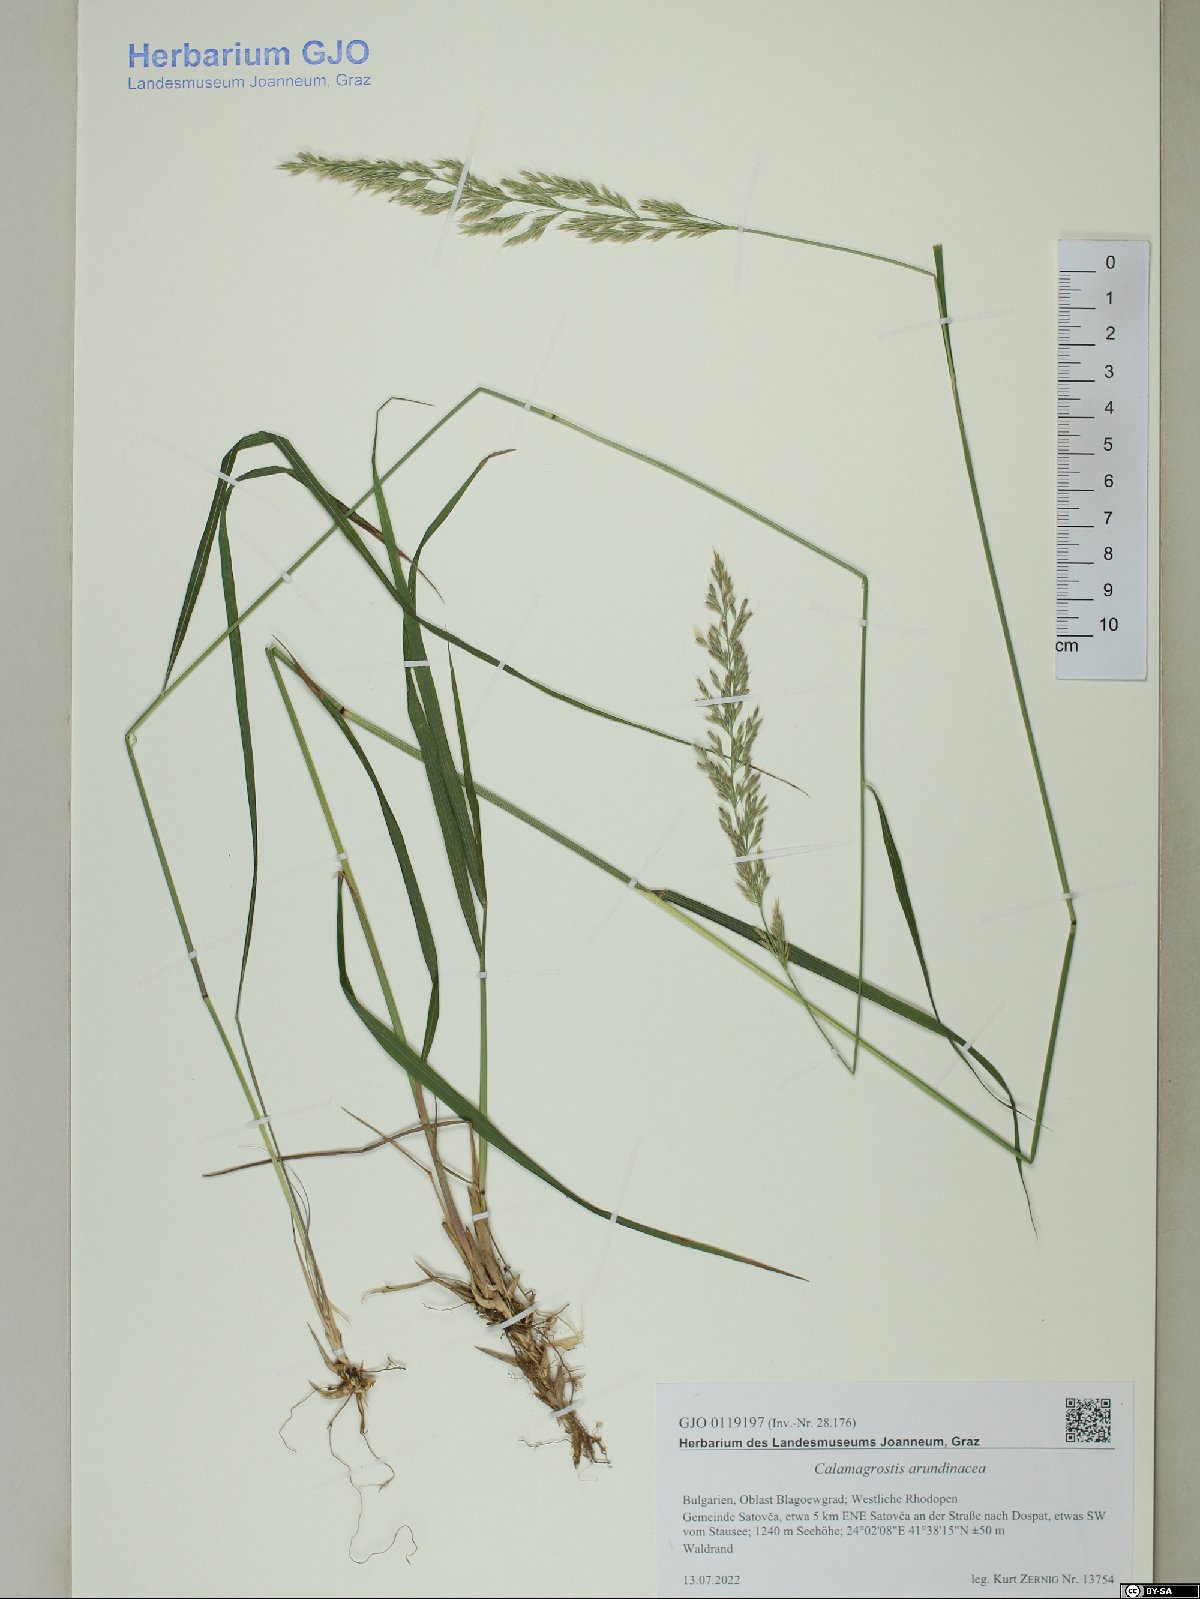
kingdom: Plantae
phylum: Tracheophyta
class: Liliopsida
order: Poales
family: Poaceae
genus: Calamagrostis
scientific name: Calamagrostis arundinacea
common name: Metskastik
